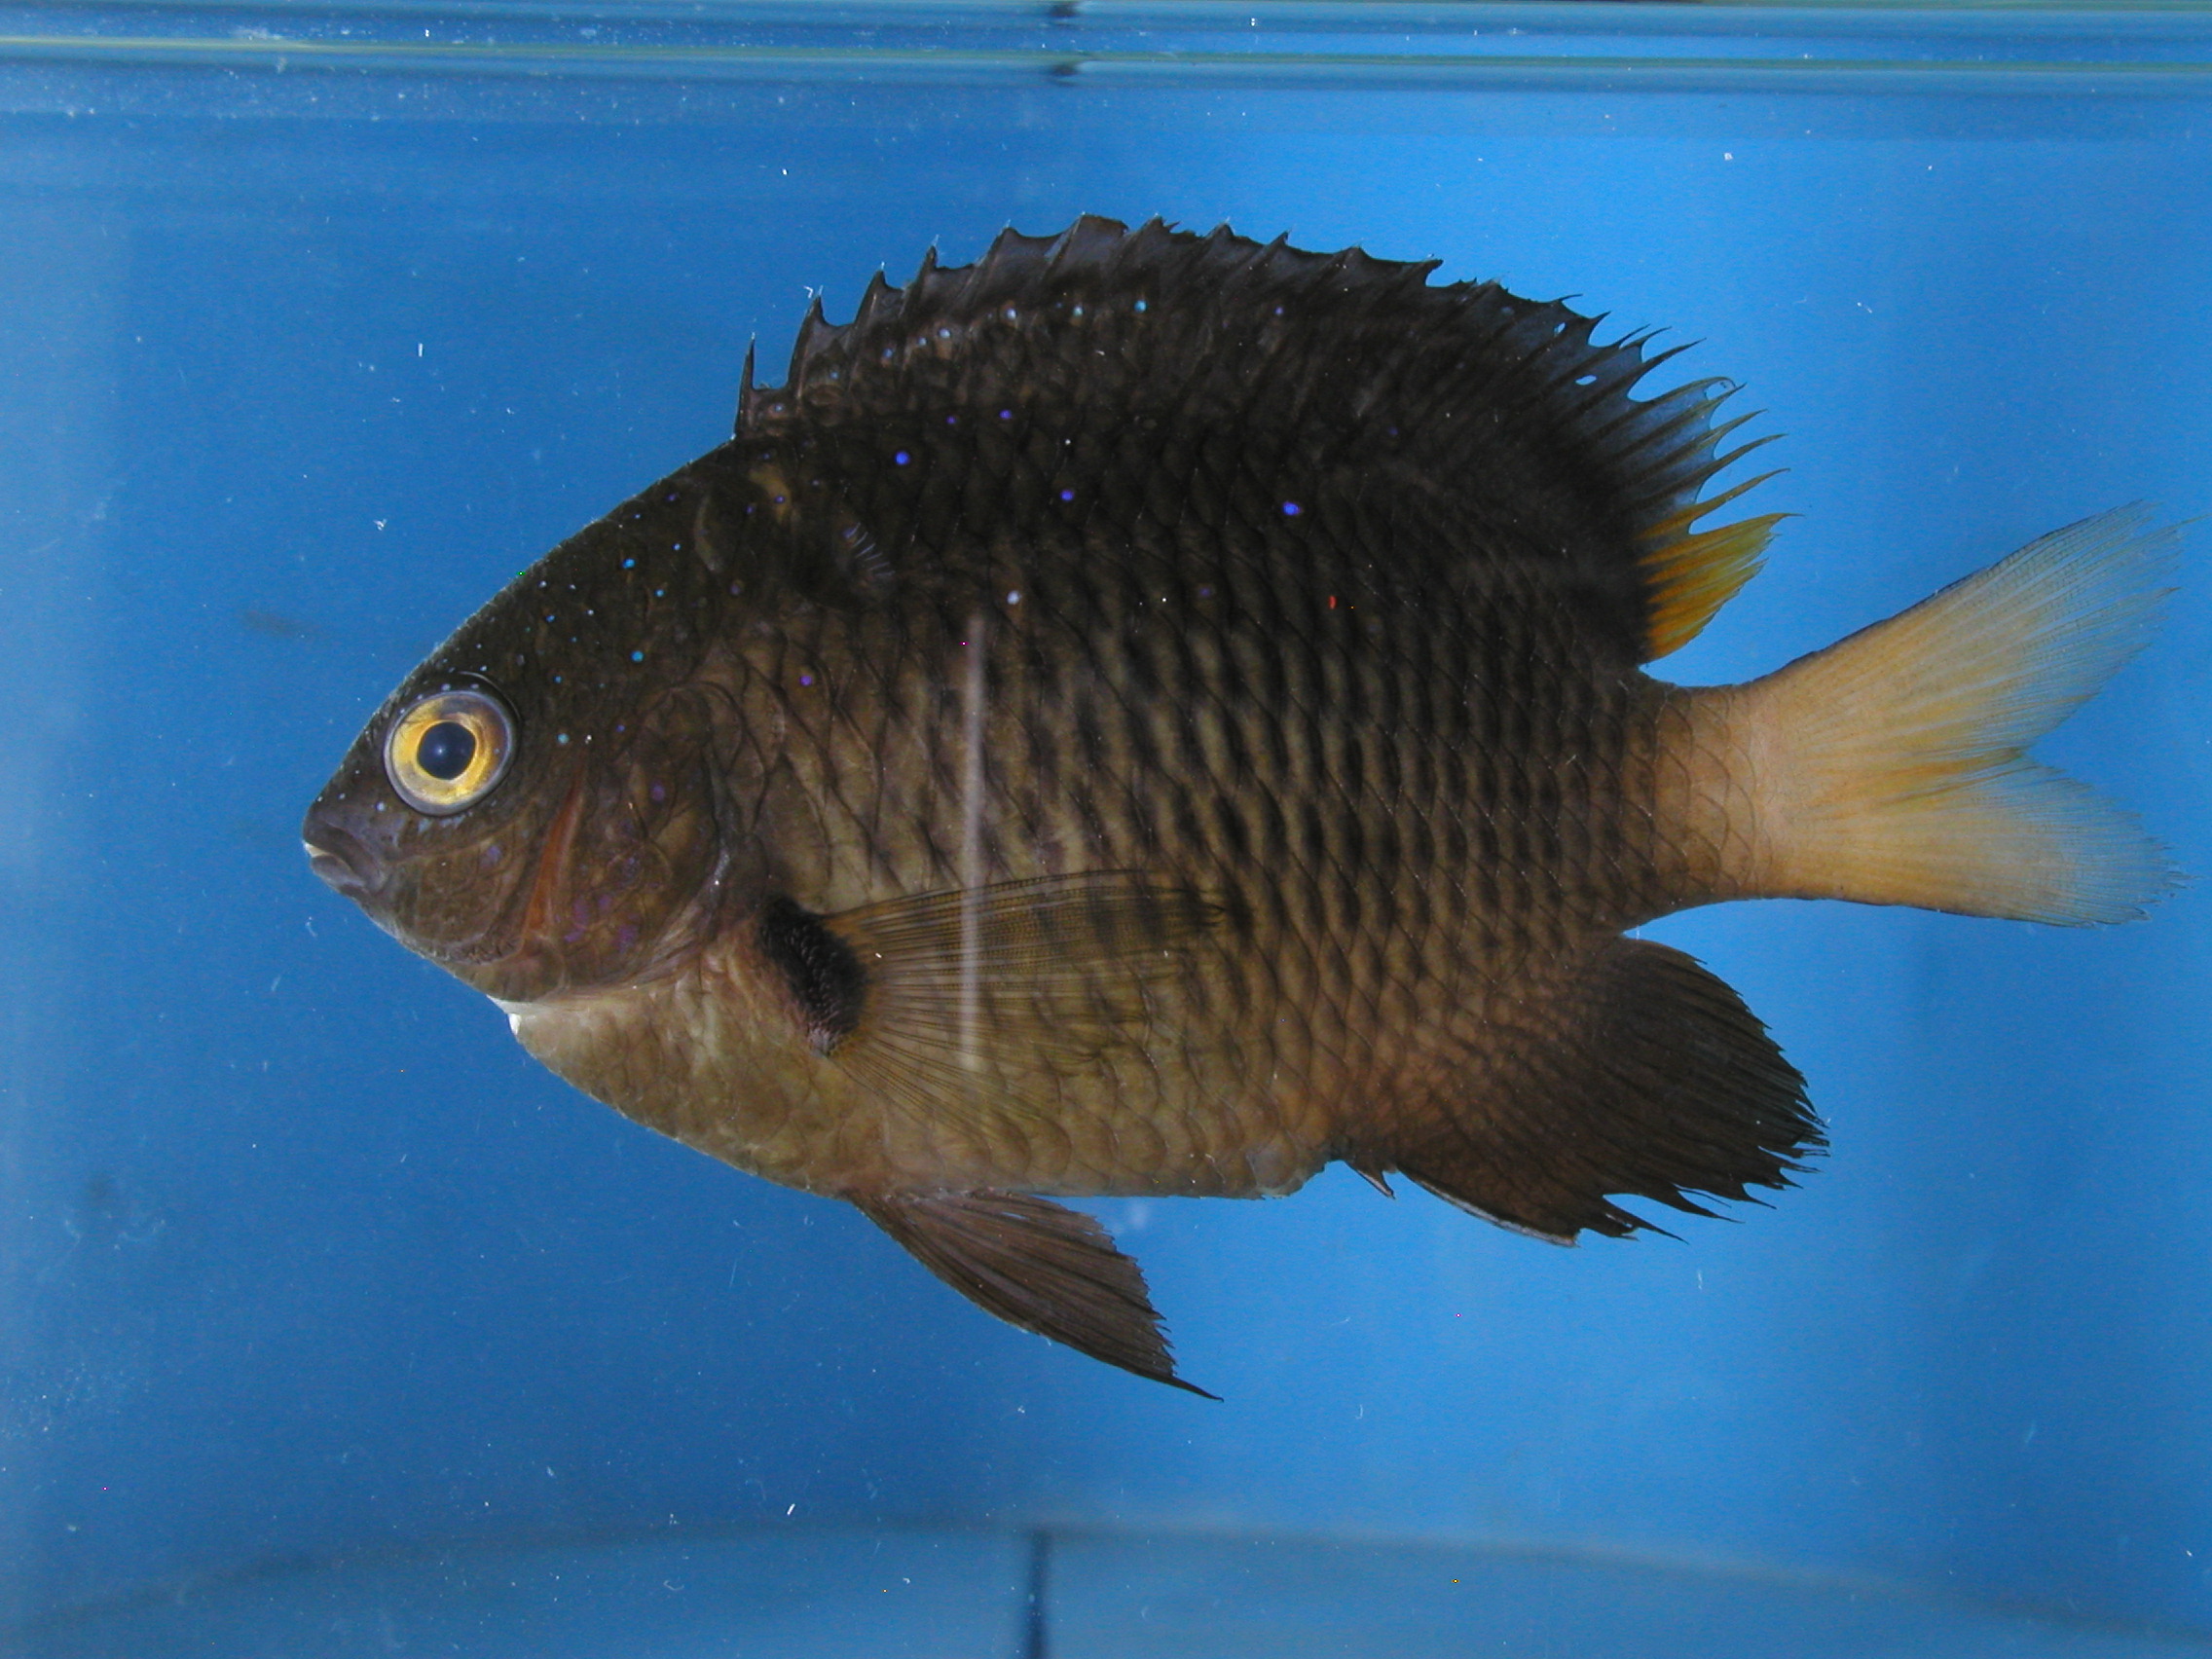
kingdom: Animalia
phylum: Chordata
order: Perciformes
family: Pomacentridae
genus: Plectroglyphidodon
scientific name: Plectroglyphidodon lacrymatus
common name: Jewel damsel
